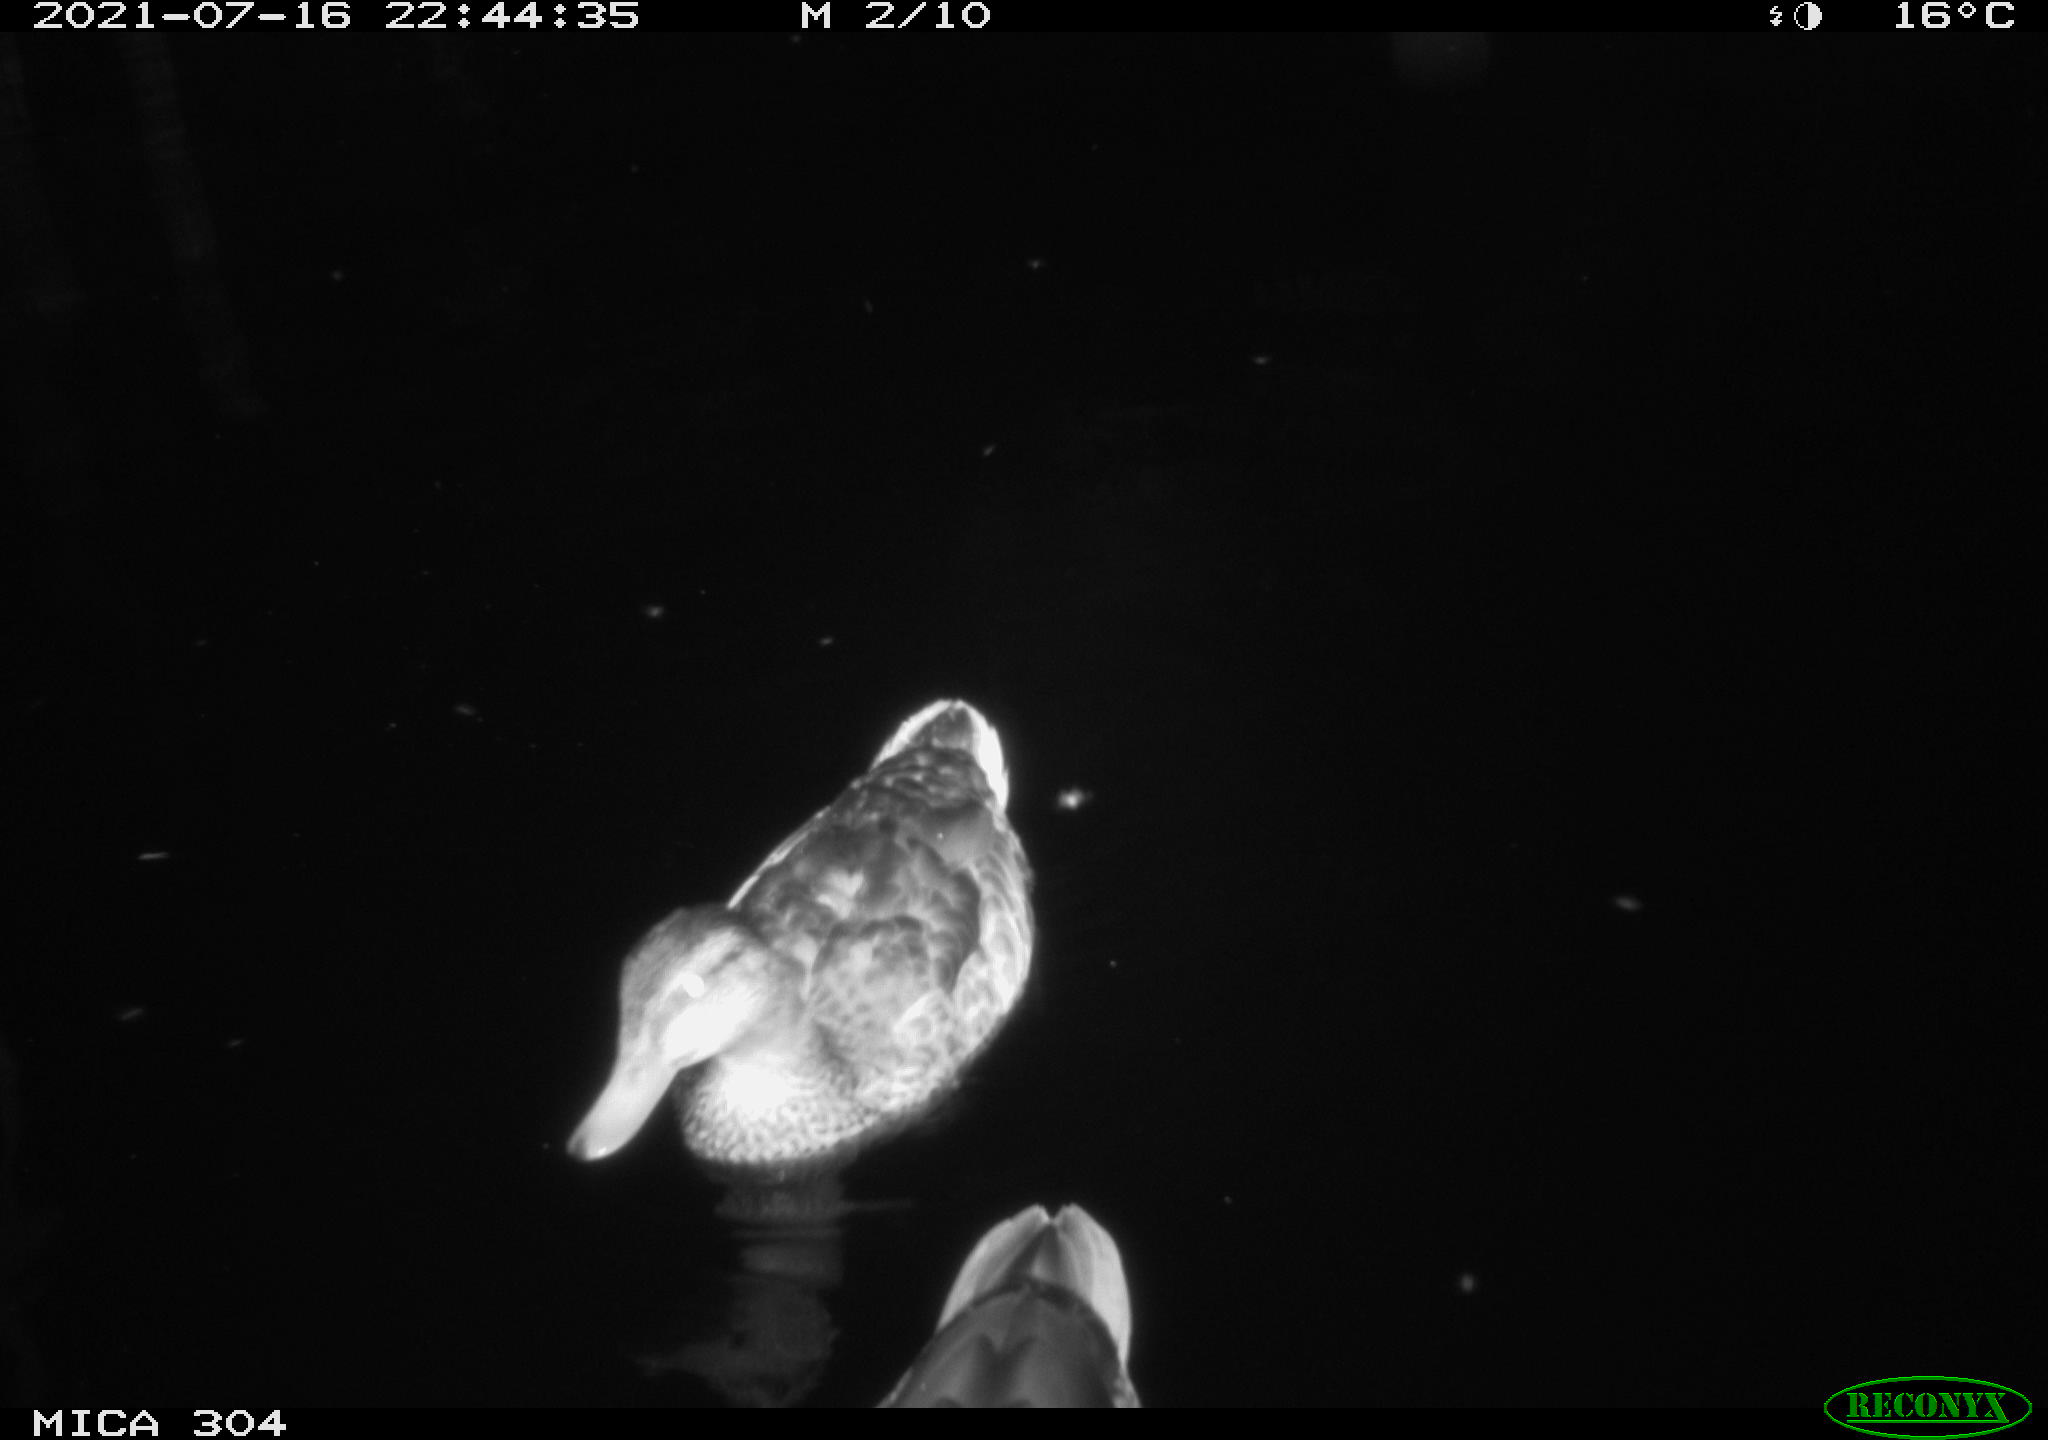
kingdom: Animalia
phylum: Chordata
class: Aves
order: Anseriformes
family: Anatidae
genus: Anas
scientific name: Anas platyrhynchos
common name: Mallard
